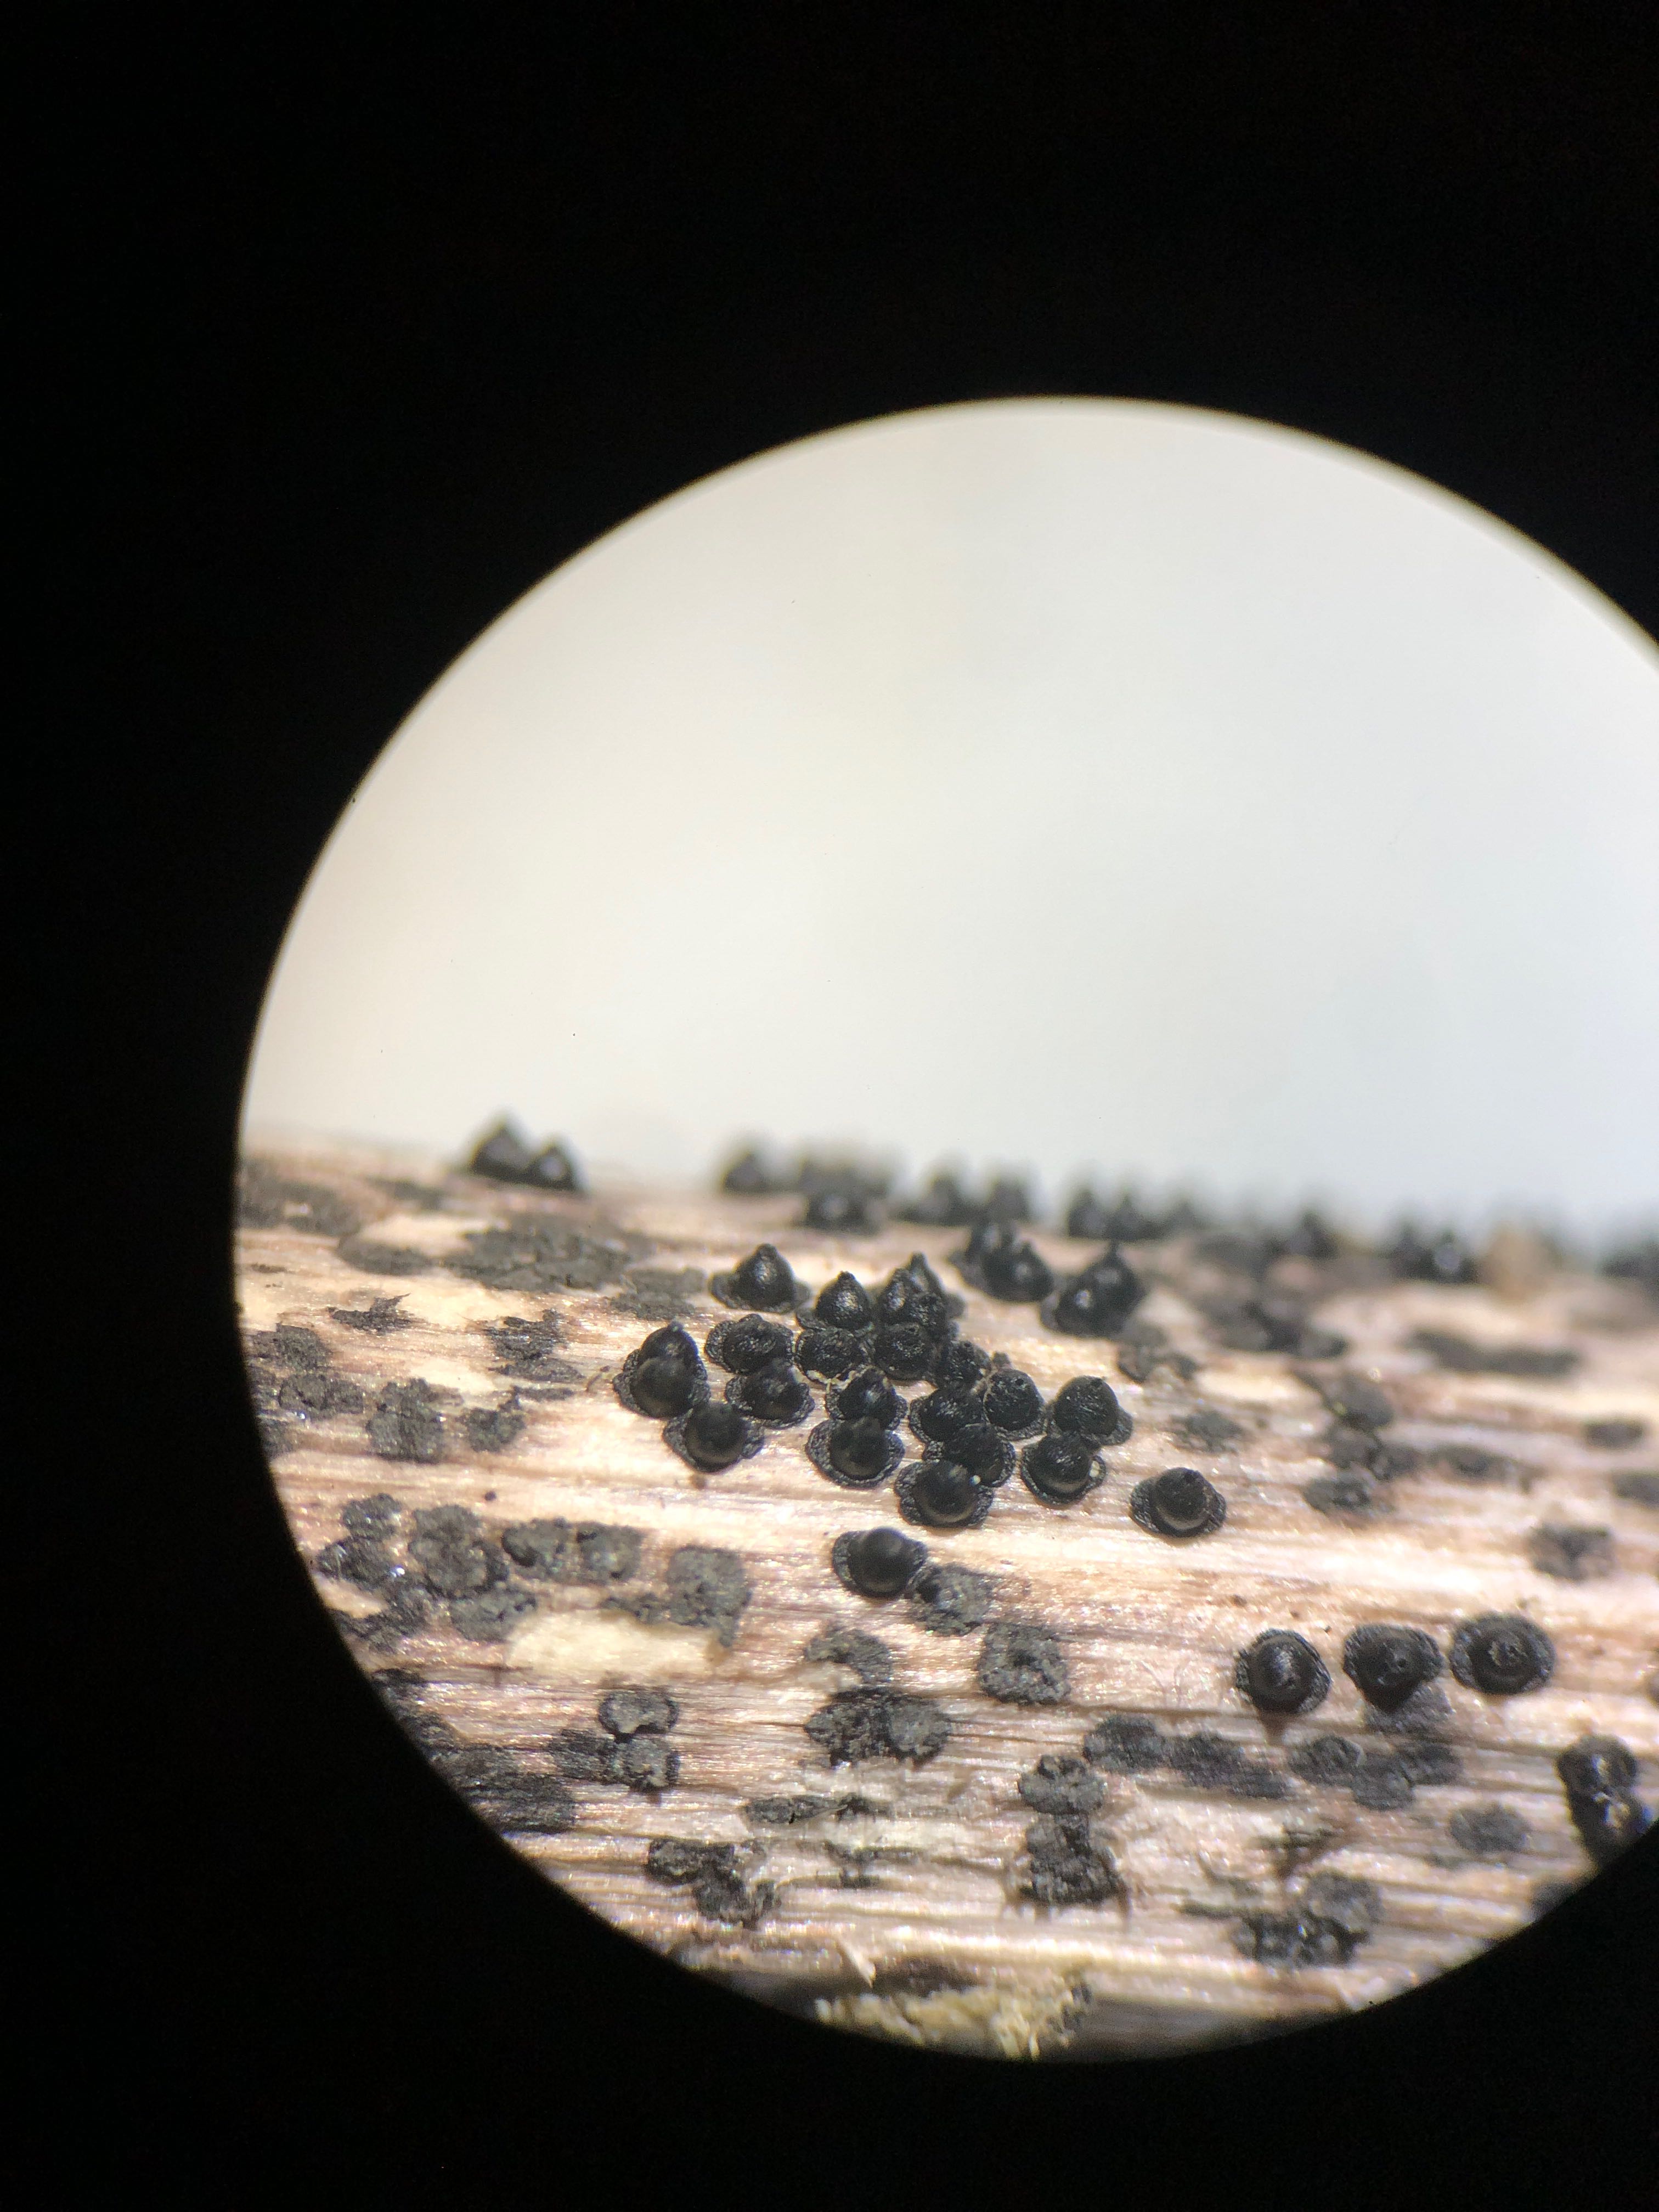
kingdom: Fungi
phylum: Ascomycota
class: Dothideomycetes
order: Pleosporales
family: Leptosphaeriaceae
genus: Leptosphaeria
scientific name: Leptosphaeria acuta
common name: spids kulkegle
